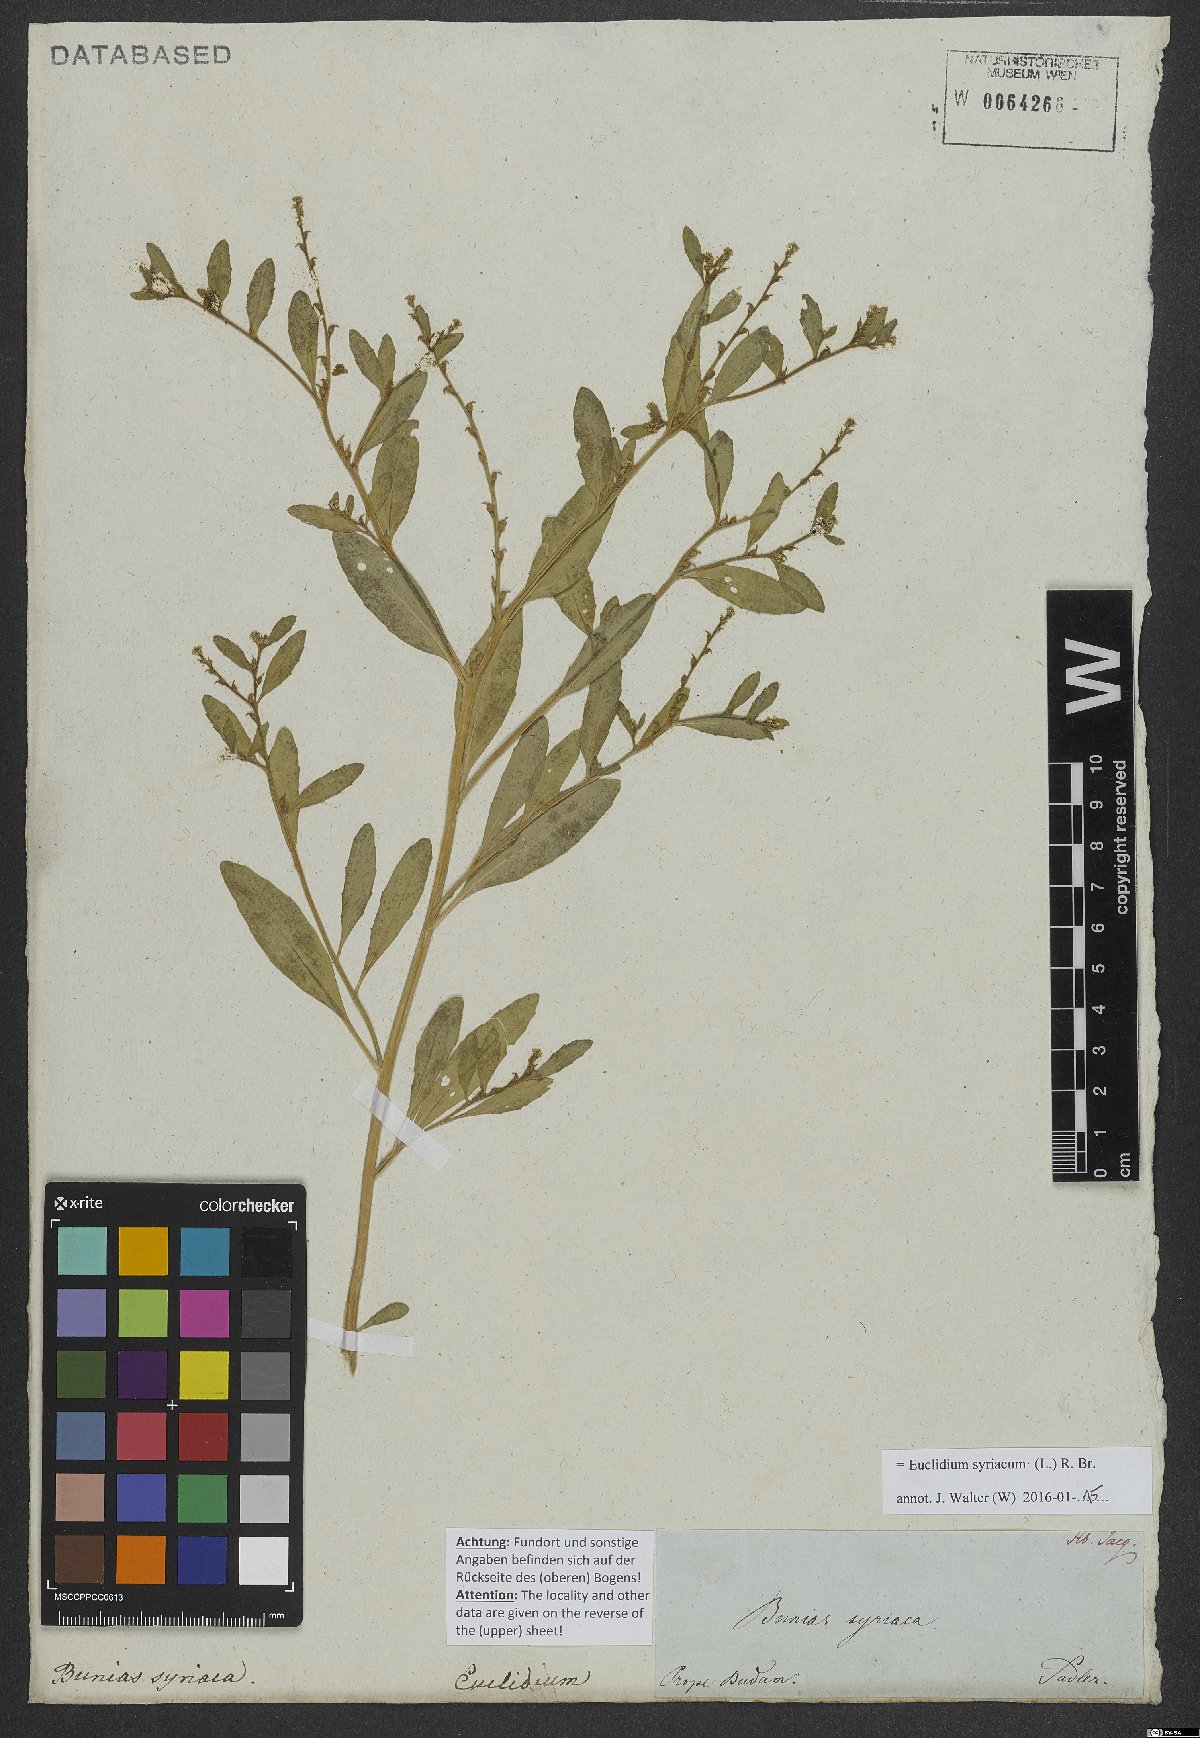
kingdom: Plantae
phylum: Tracheophyta
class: Magnoliopsida
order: Brassicales
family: Brassicaceae
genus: Euclidium
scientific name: Euclidium syriacum
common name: Syrian mustard
